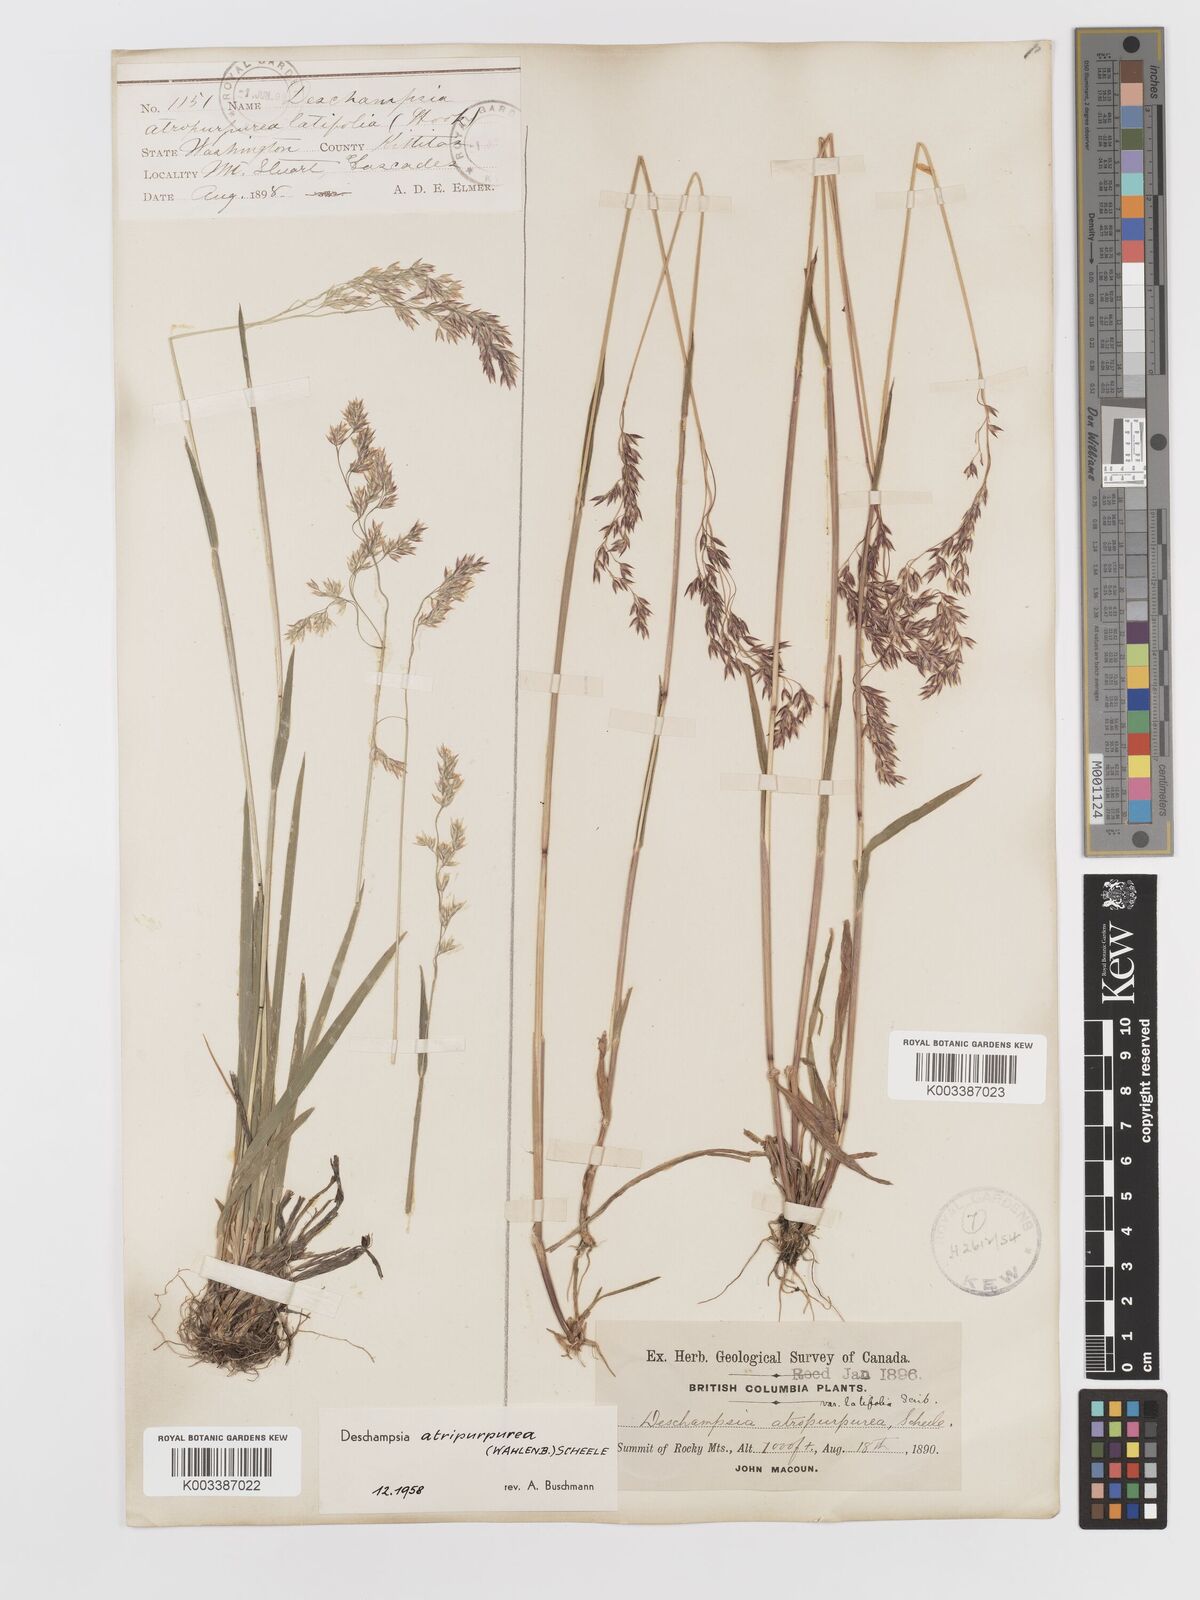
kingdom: Plantae
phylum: Tracheophyta
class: Liliopsida
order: Poales
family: Poaceae
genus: Vahlodea
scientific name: Vahlodea atropurpurea
